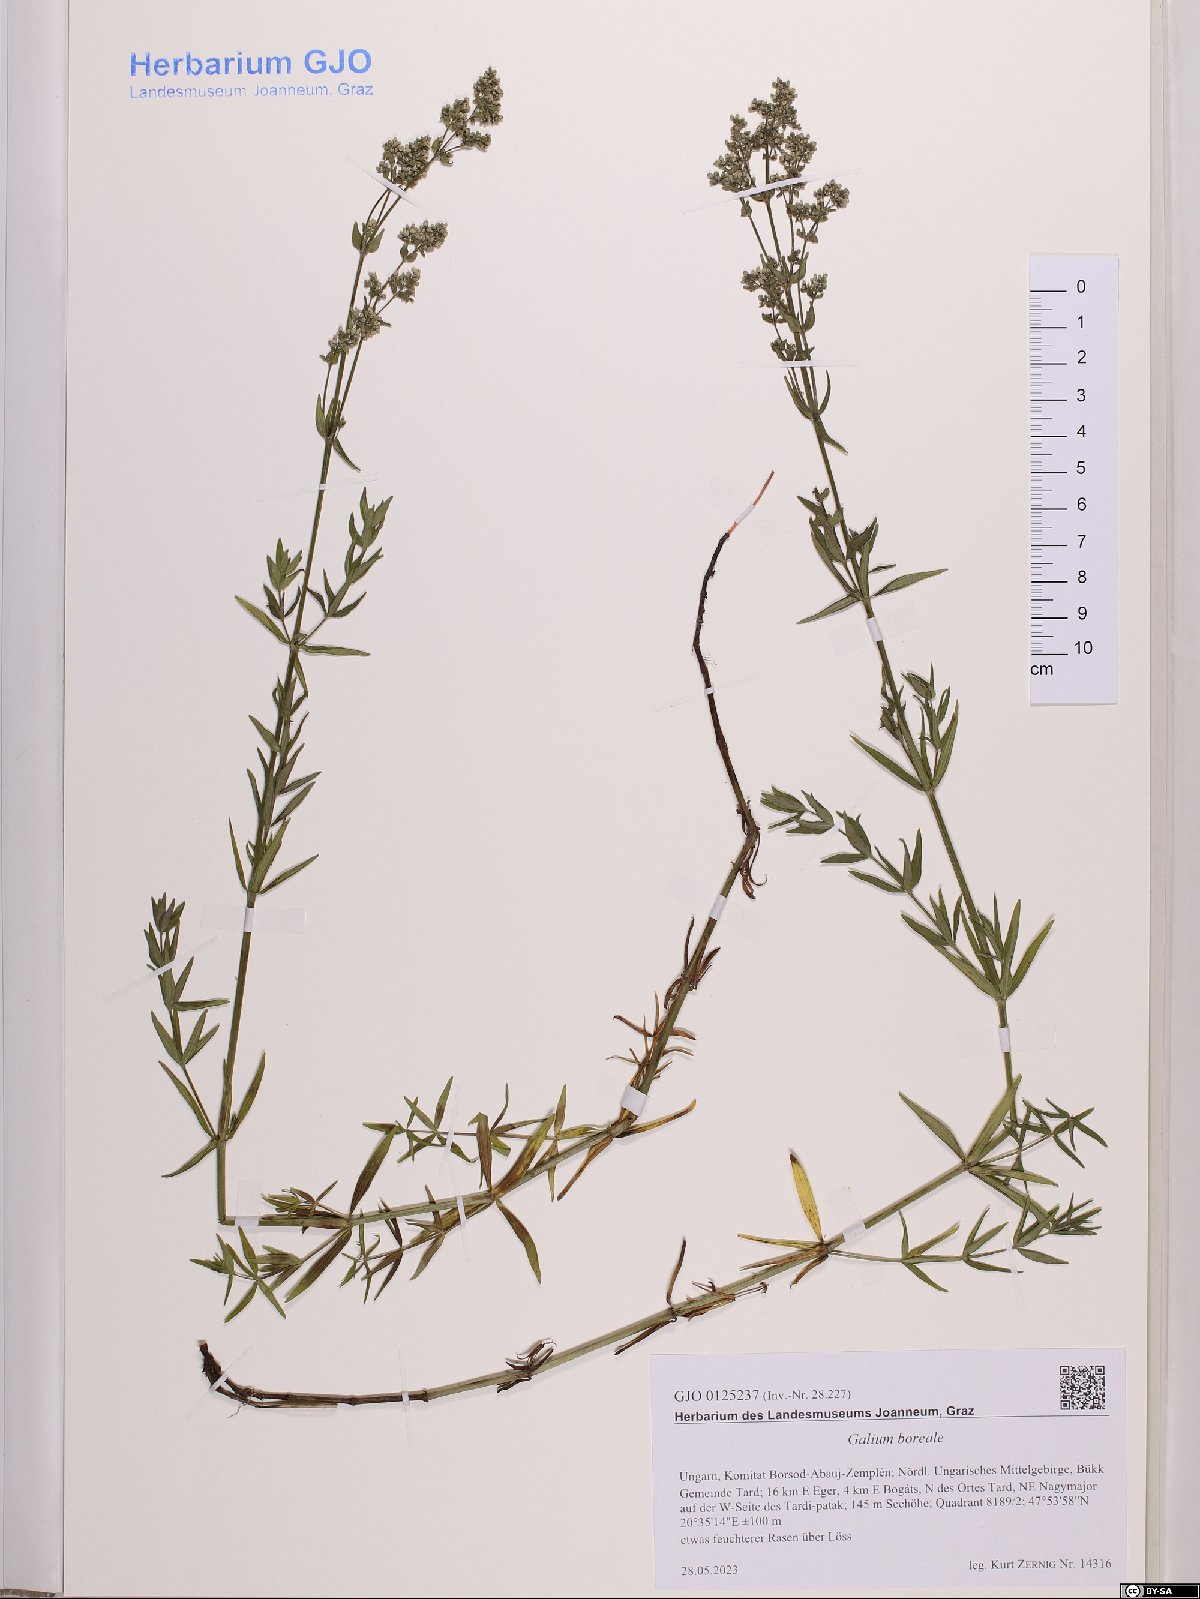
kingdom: Plantae
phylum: Tracheophyta
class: Magnoliopsida
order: Gentianales
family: Rubiaceae
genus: Galium
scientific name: Galium boreale
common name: Northern bedstraw
